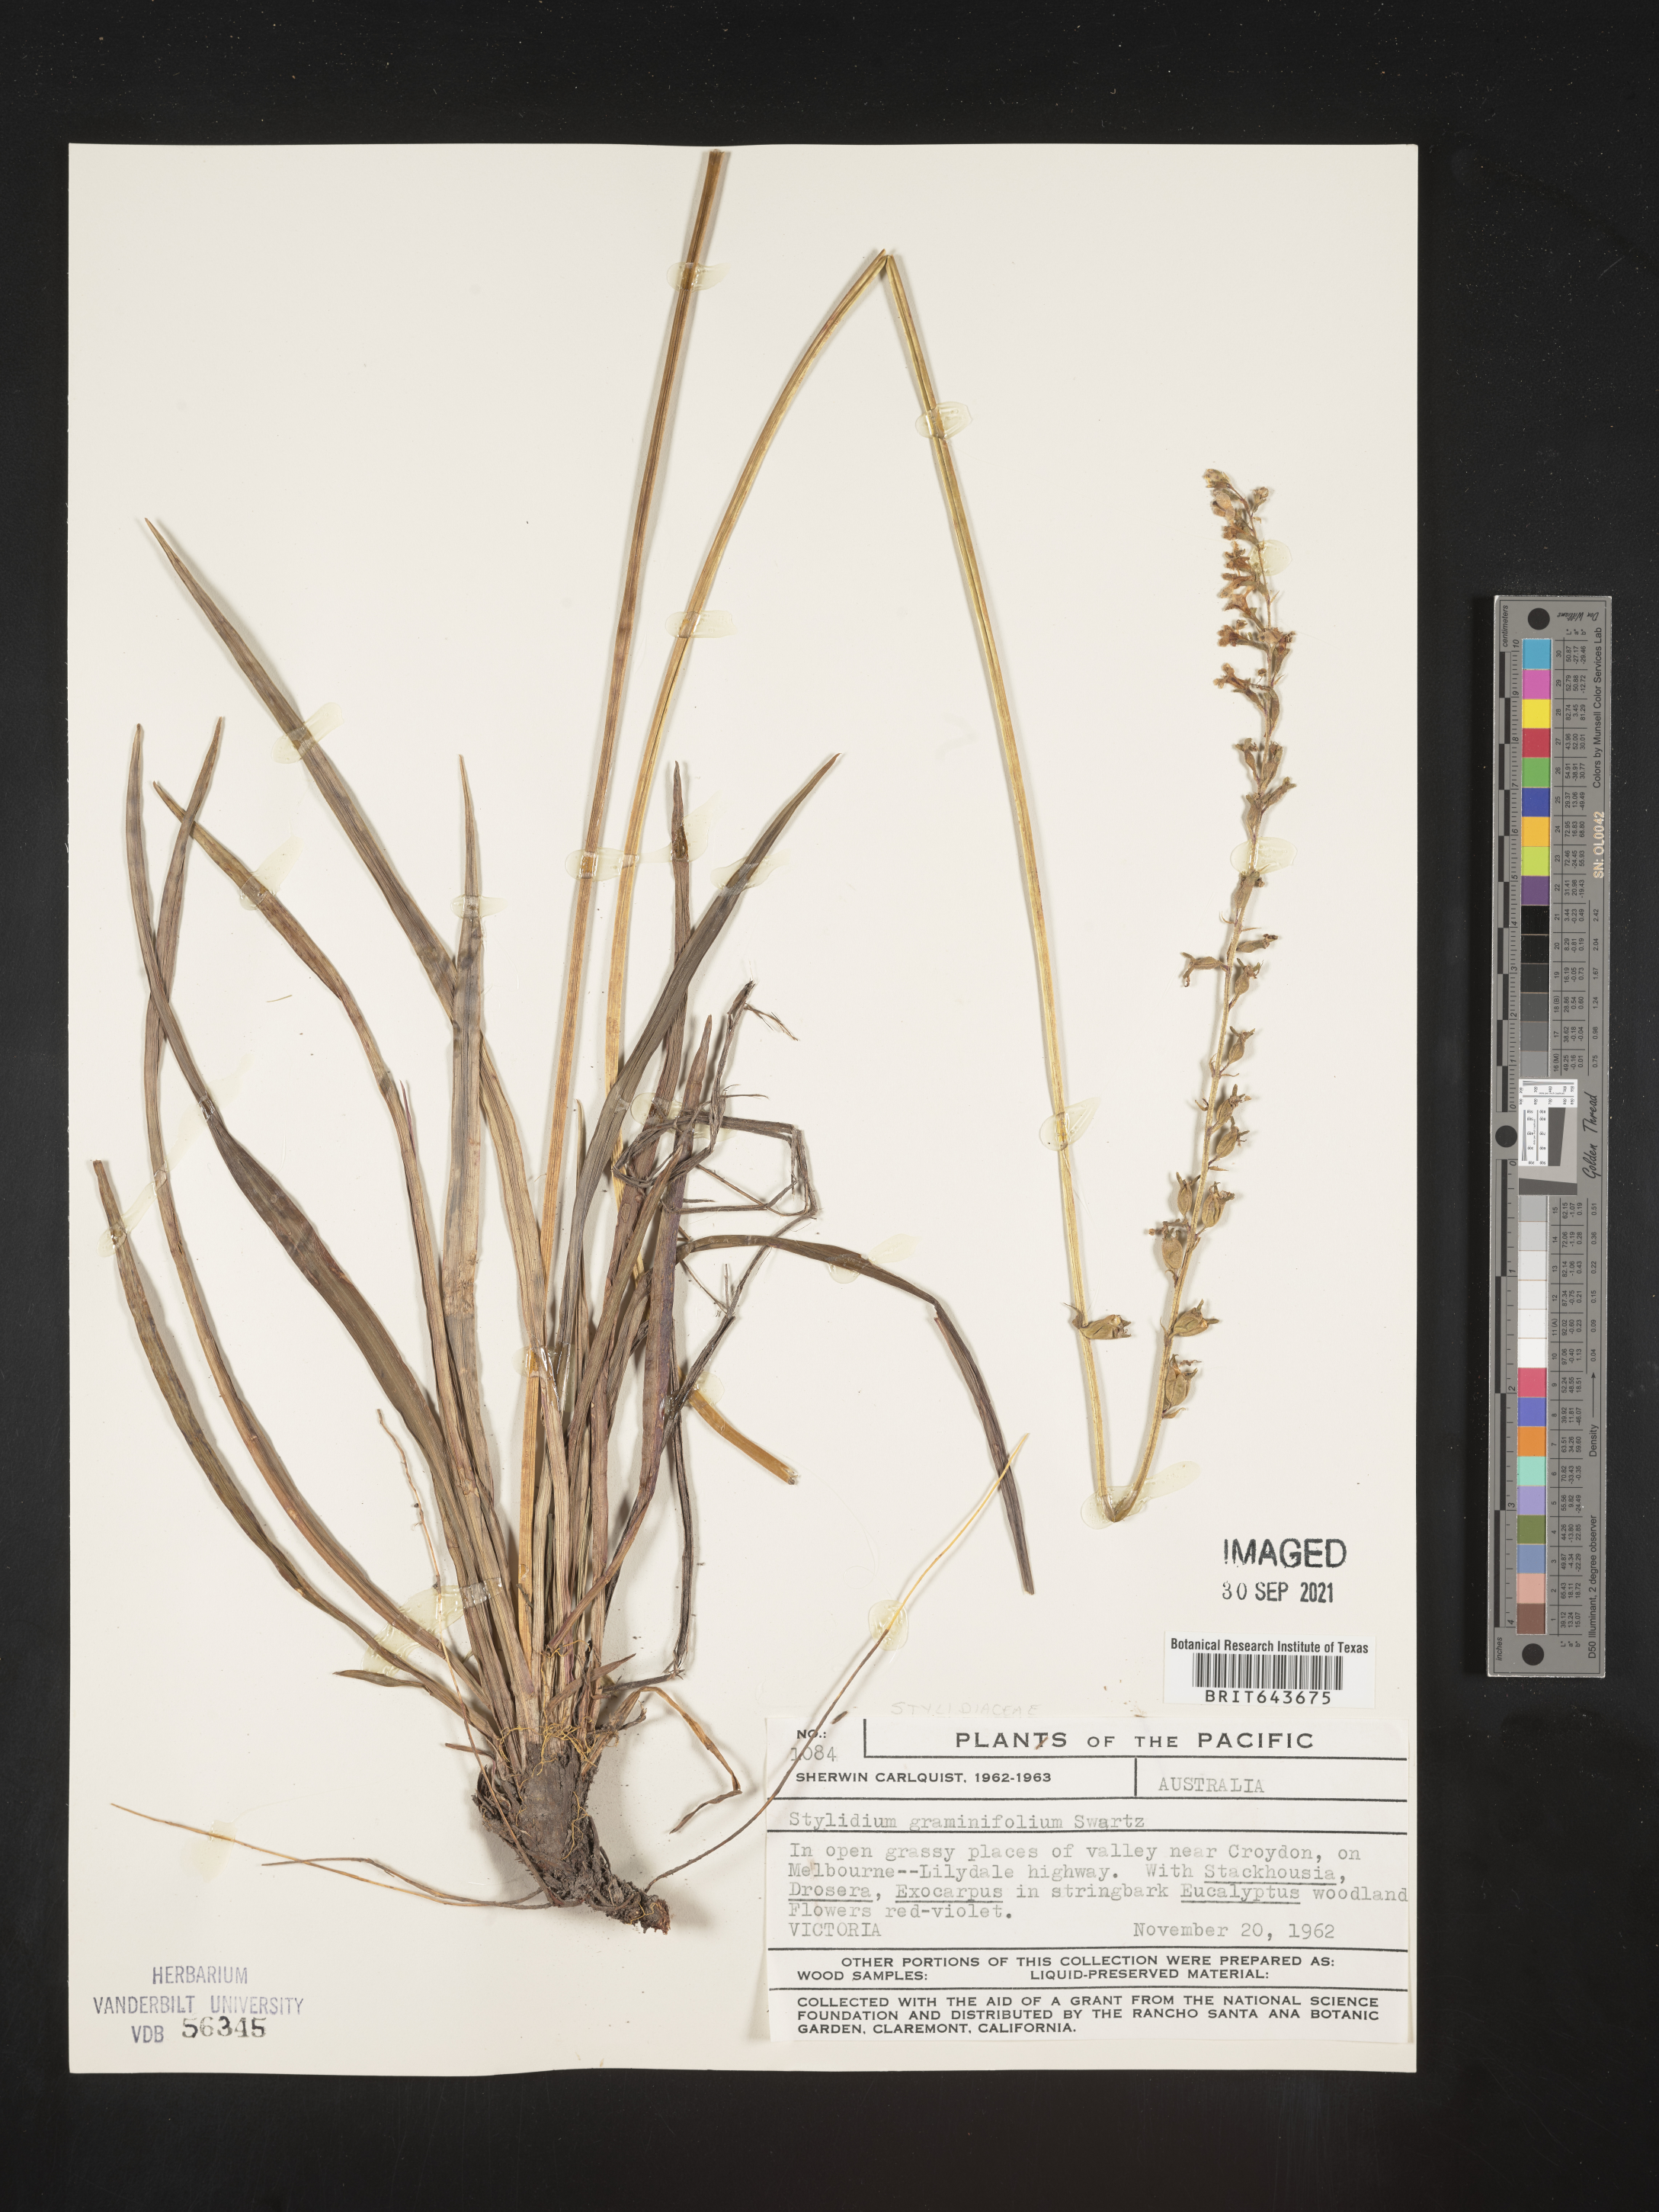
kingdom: Plantae
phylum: Tracheophyta
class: Magnoliopsida
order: Asterales
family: Stylidiaceae
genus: Stylidium
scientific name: Stylidium
